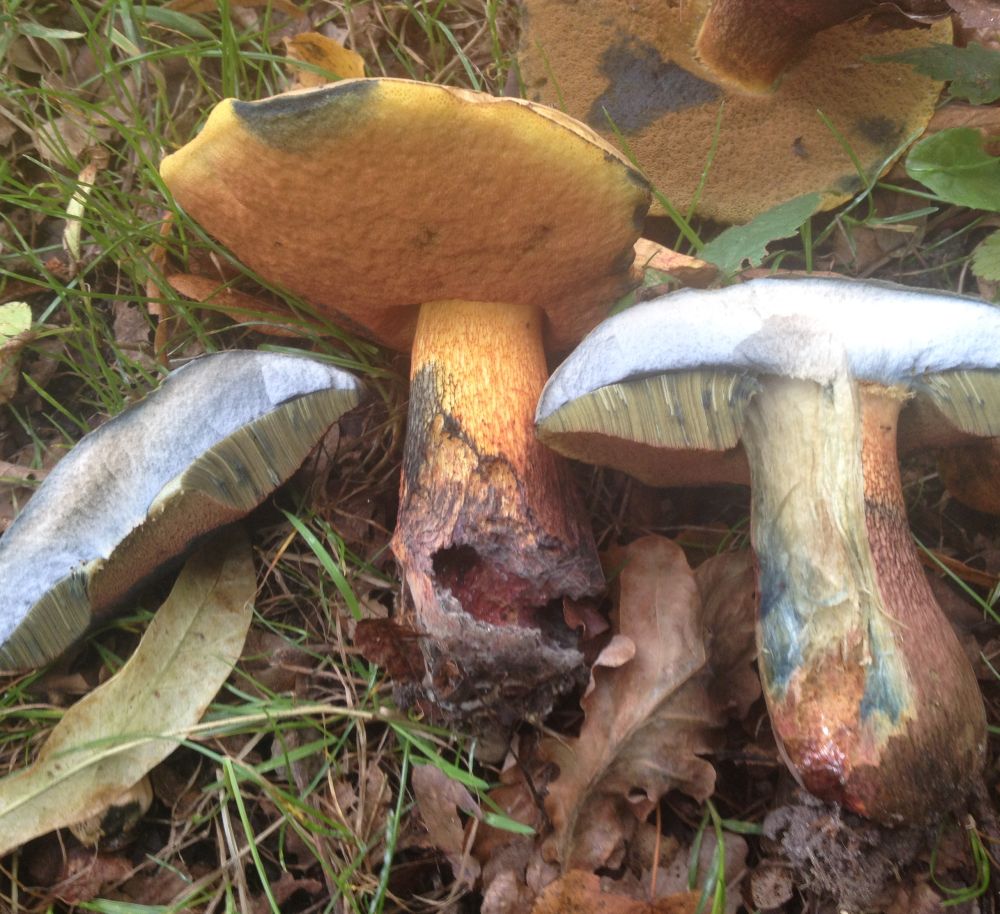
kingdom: Fungi
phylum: Basidiomycota
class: Agaricomycetes
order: Boletales
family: Boletaceae
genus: Suillellus
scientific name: Suillellus luridus
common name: netstokket indigorørhat
